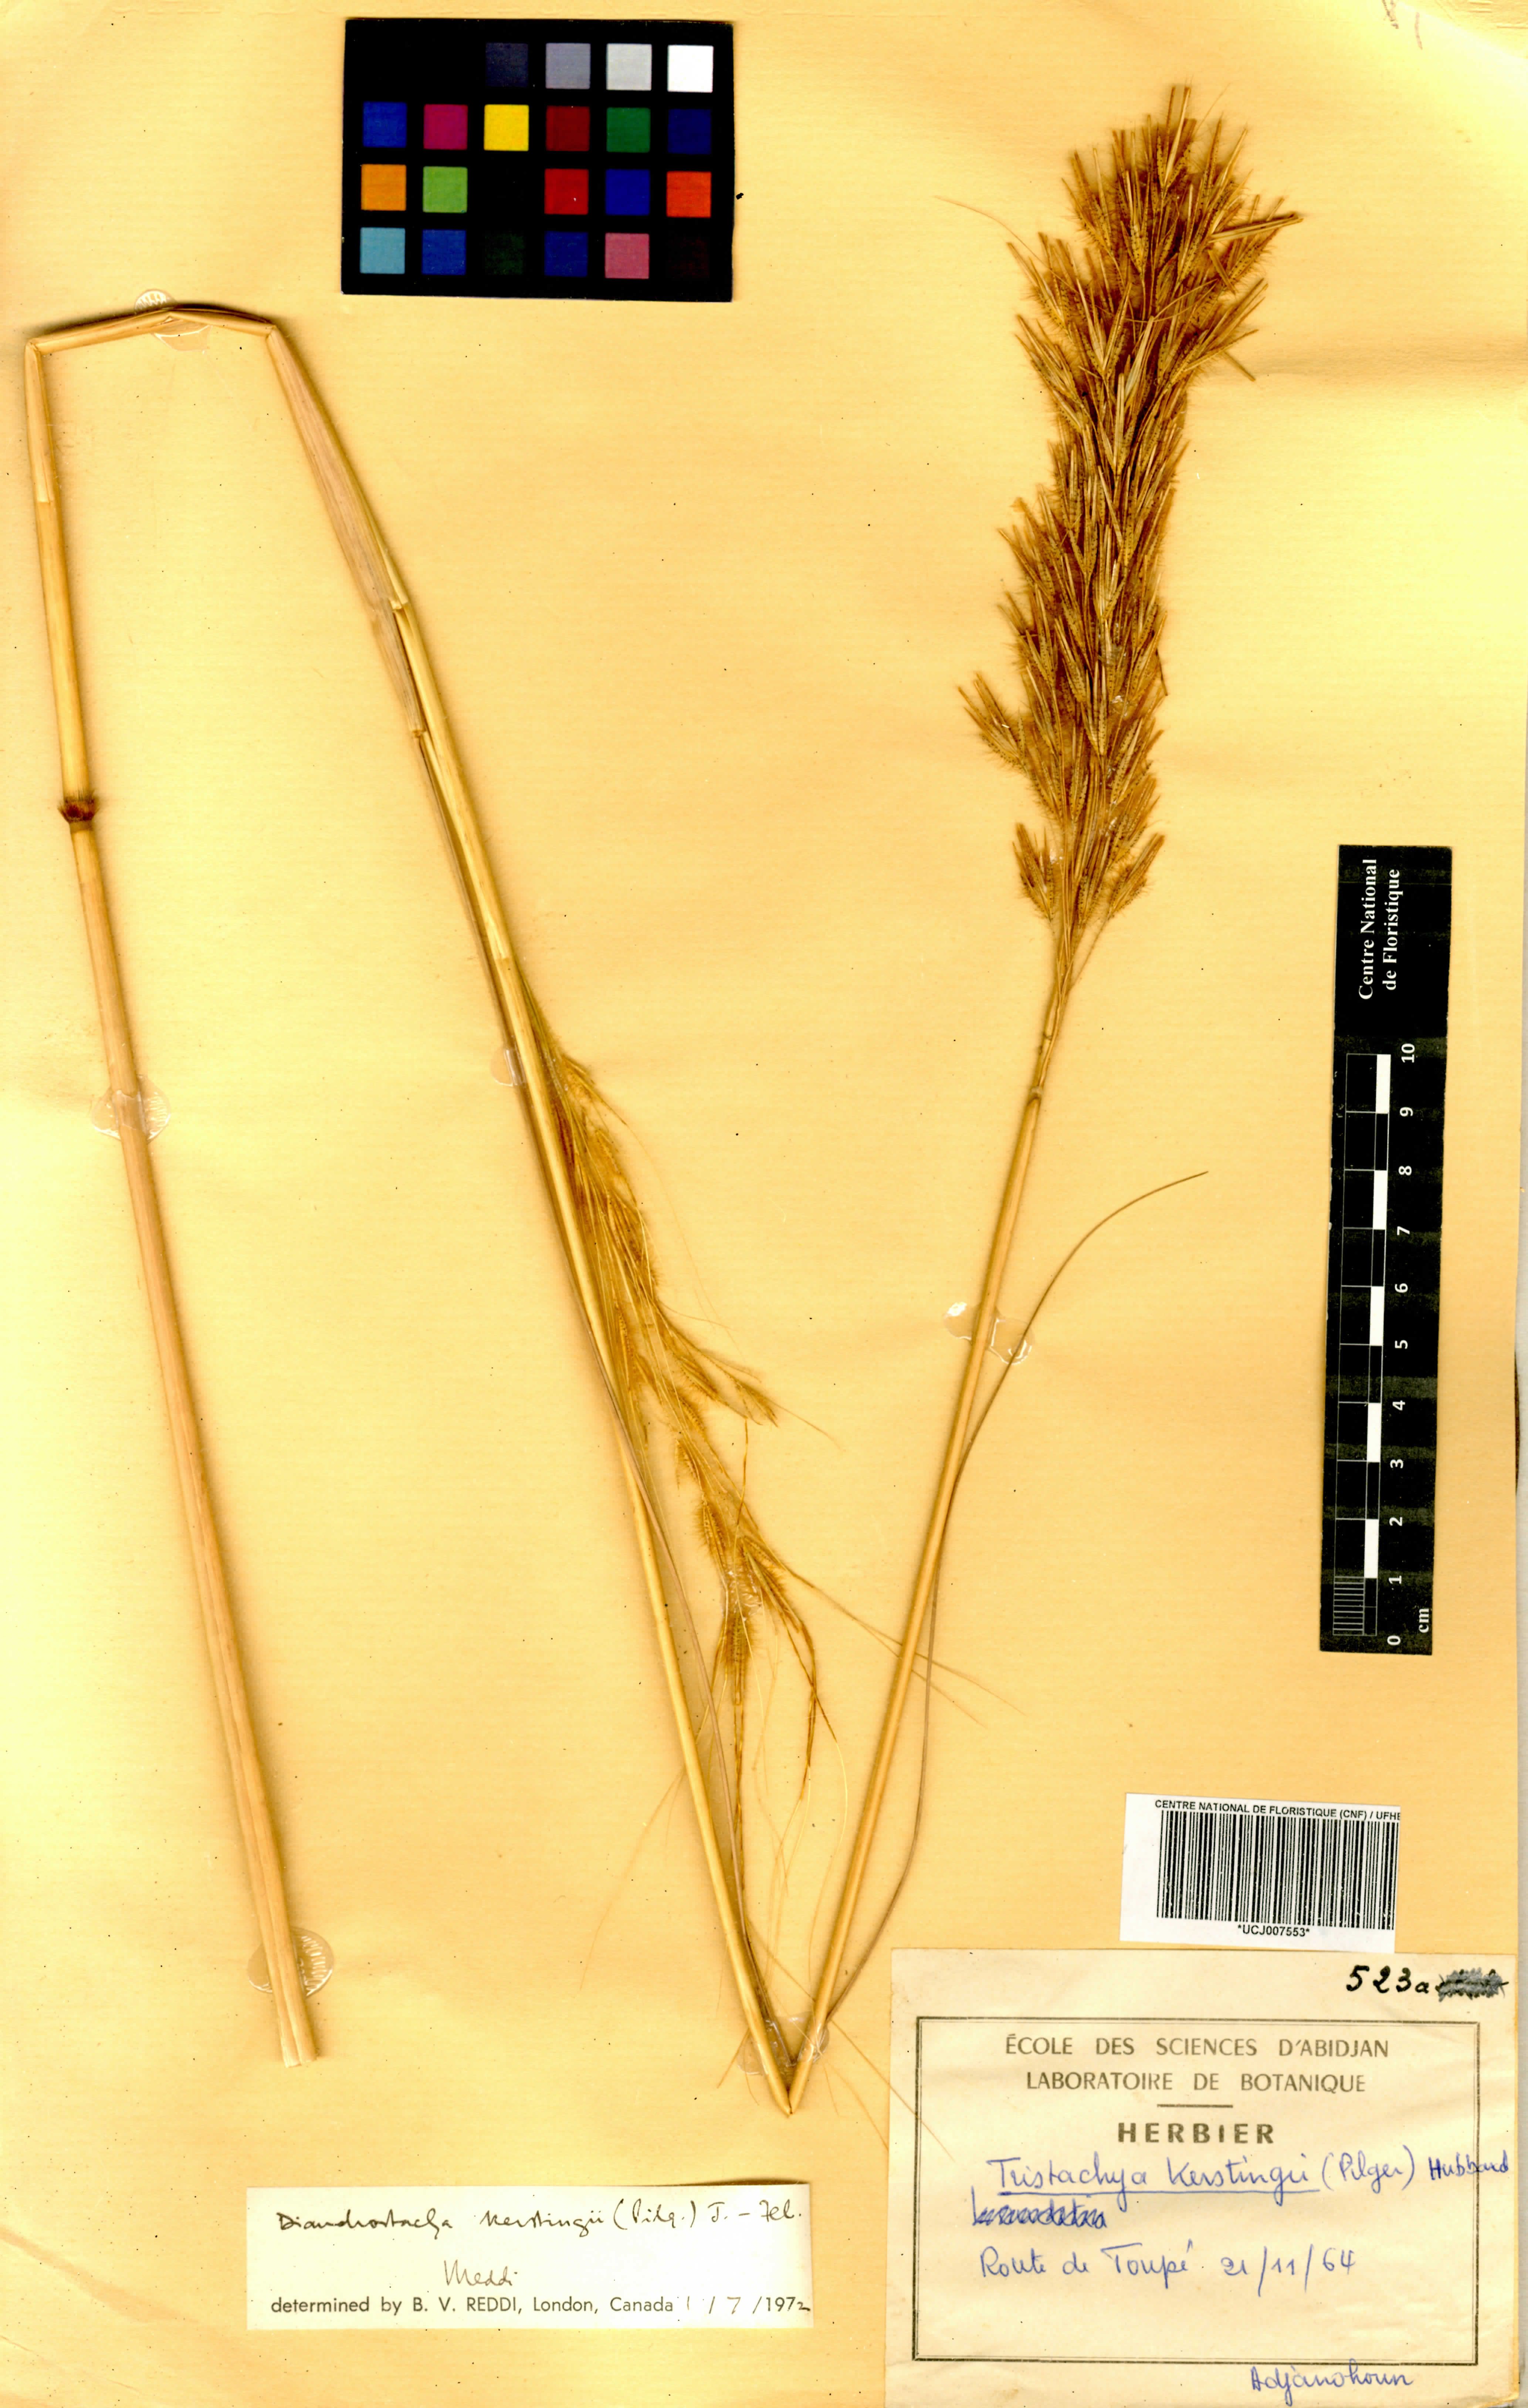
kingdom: Plantae
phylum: Tracheophyta
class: Liliopsida
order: Poales
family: Poaceae
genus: Loudetiopsis
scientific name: Loudetiopsis kerstingii
